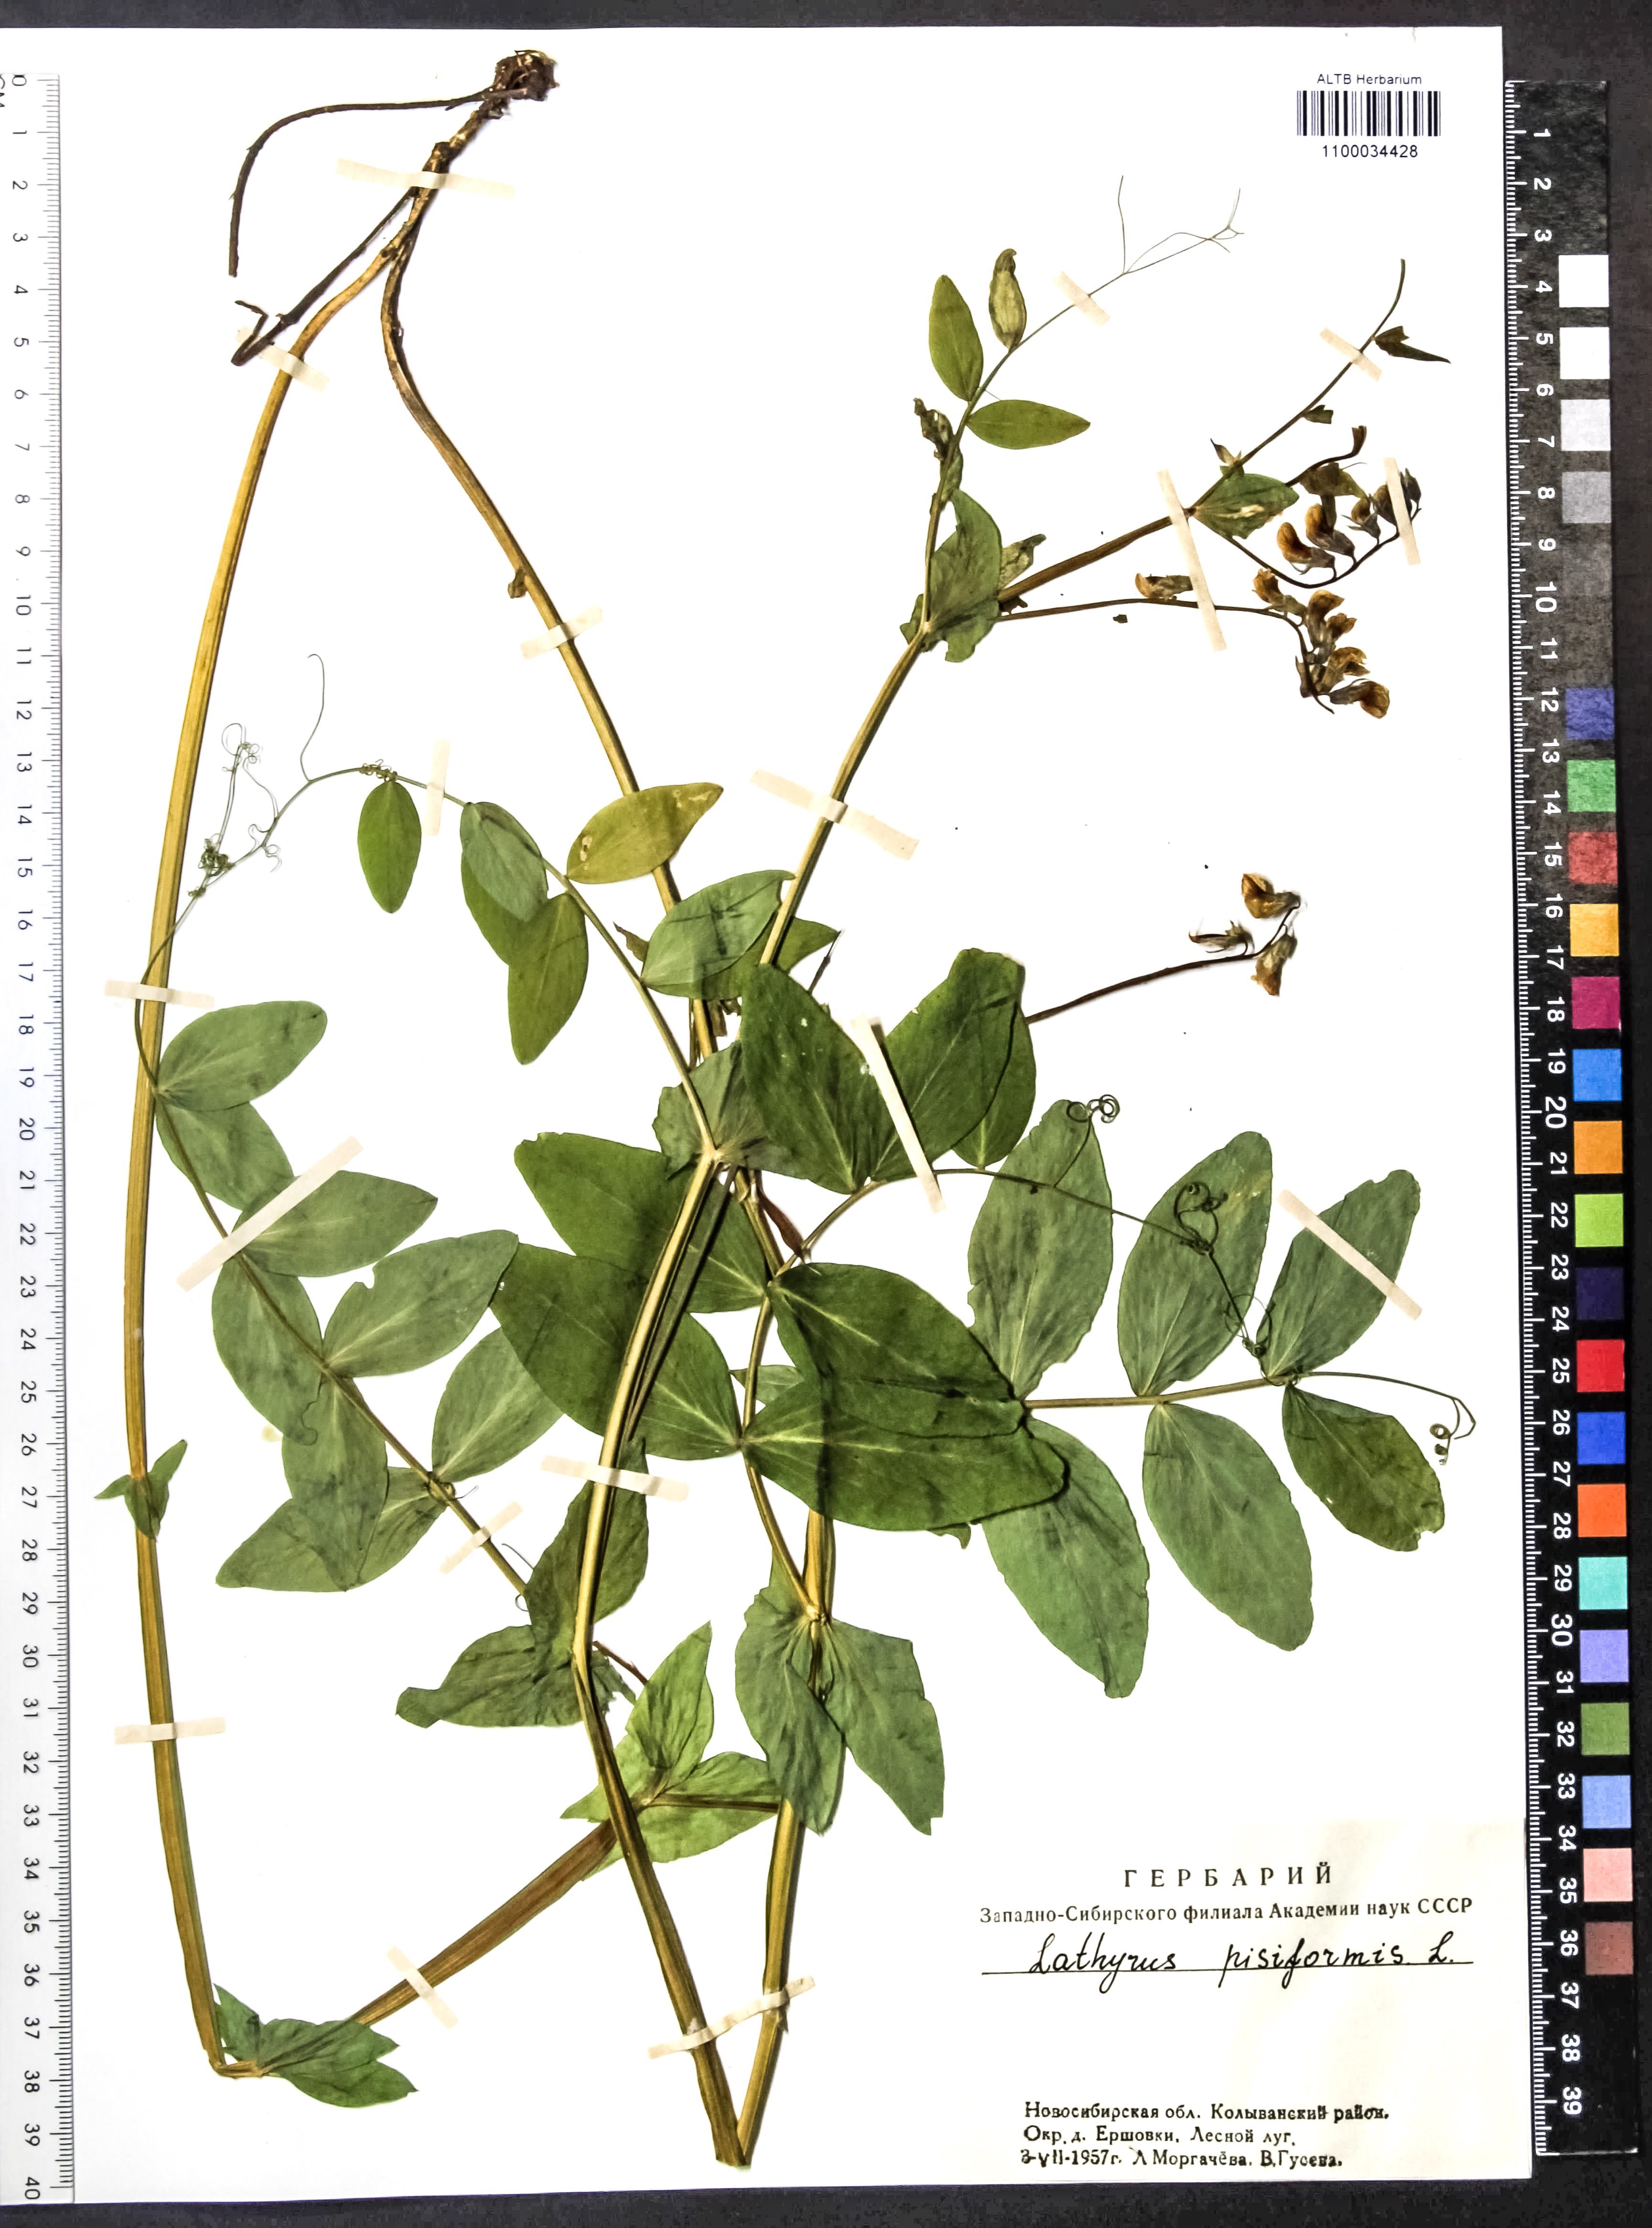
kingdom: Plantae
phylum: Tracheophyta
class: Magnoliopsida
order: Fabales
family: Fabaceae
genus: Lathyrus
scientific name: Lathyrus pisiformis
